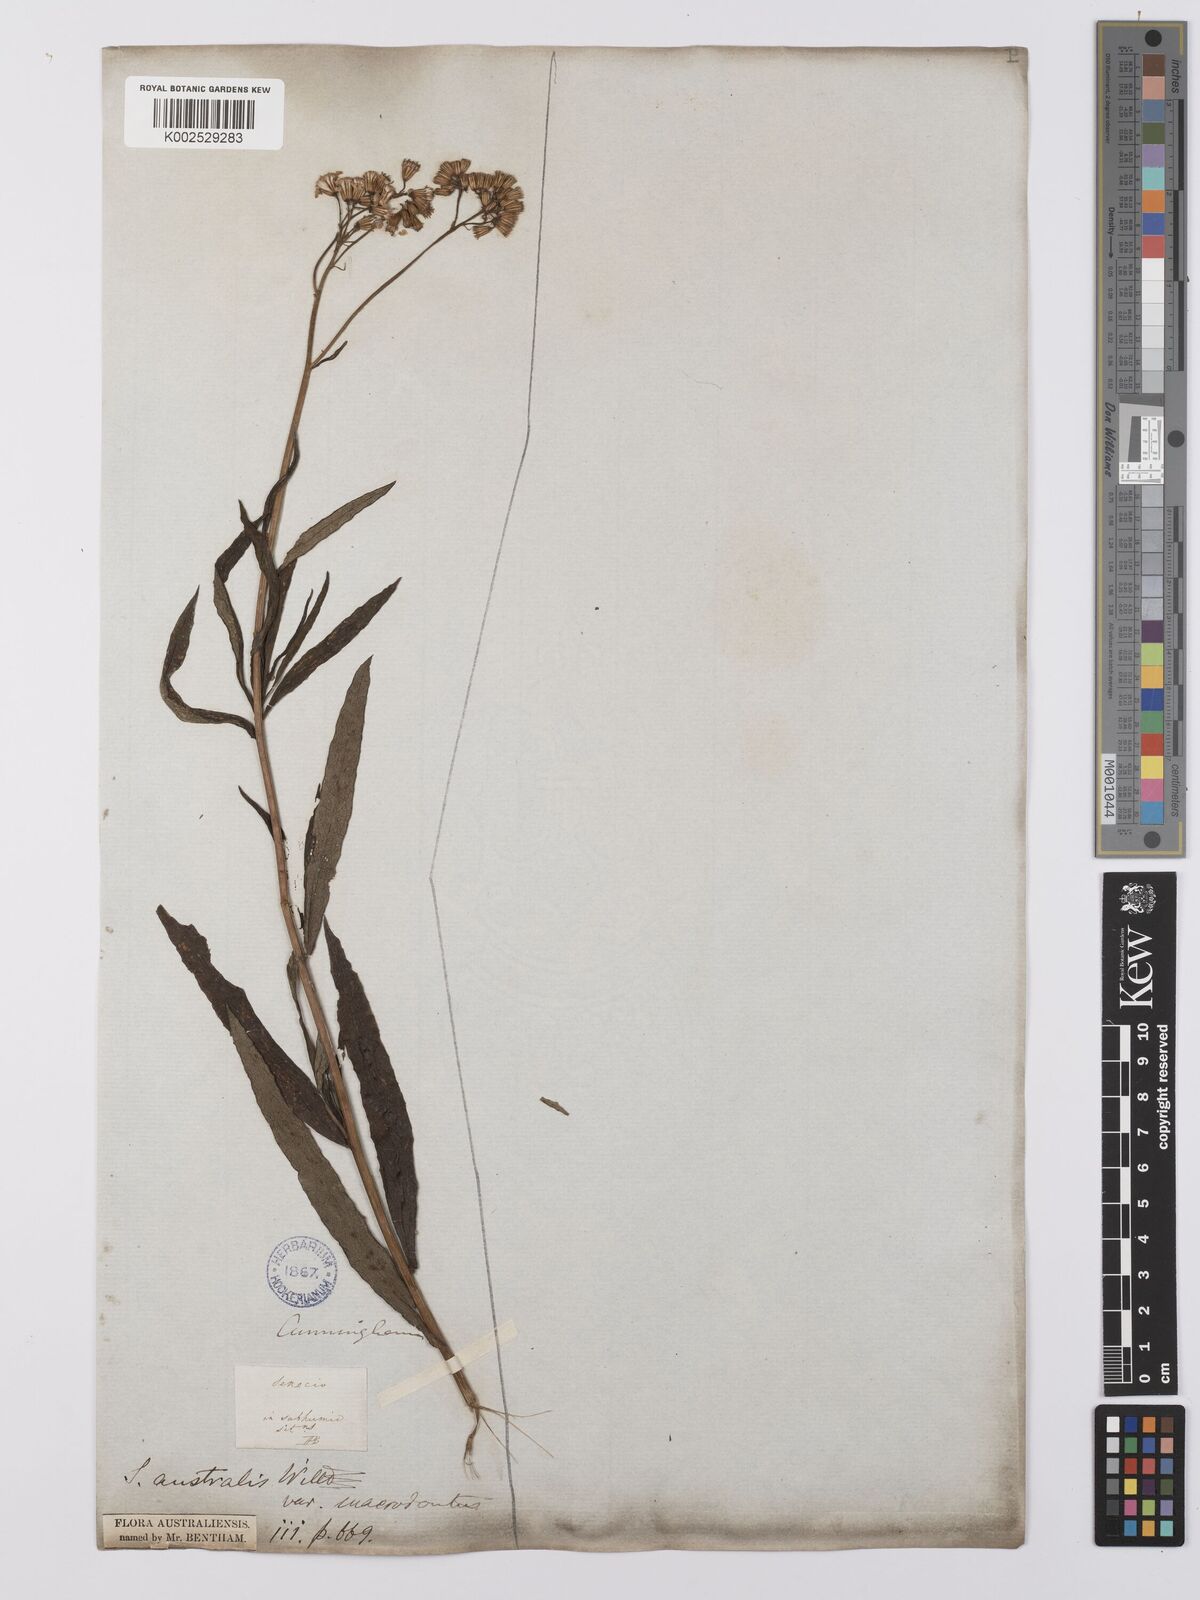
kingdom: Plantae
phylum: Tracheophyta
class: Magnoliopsida
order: Asterales
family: Asteraceae
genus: Senecio
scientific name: Senecio
